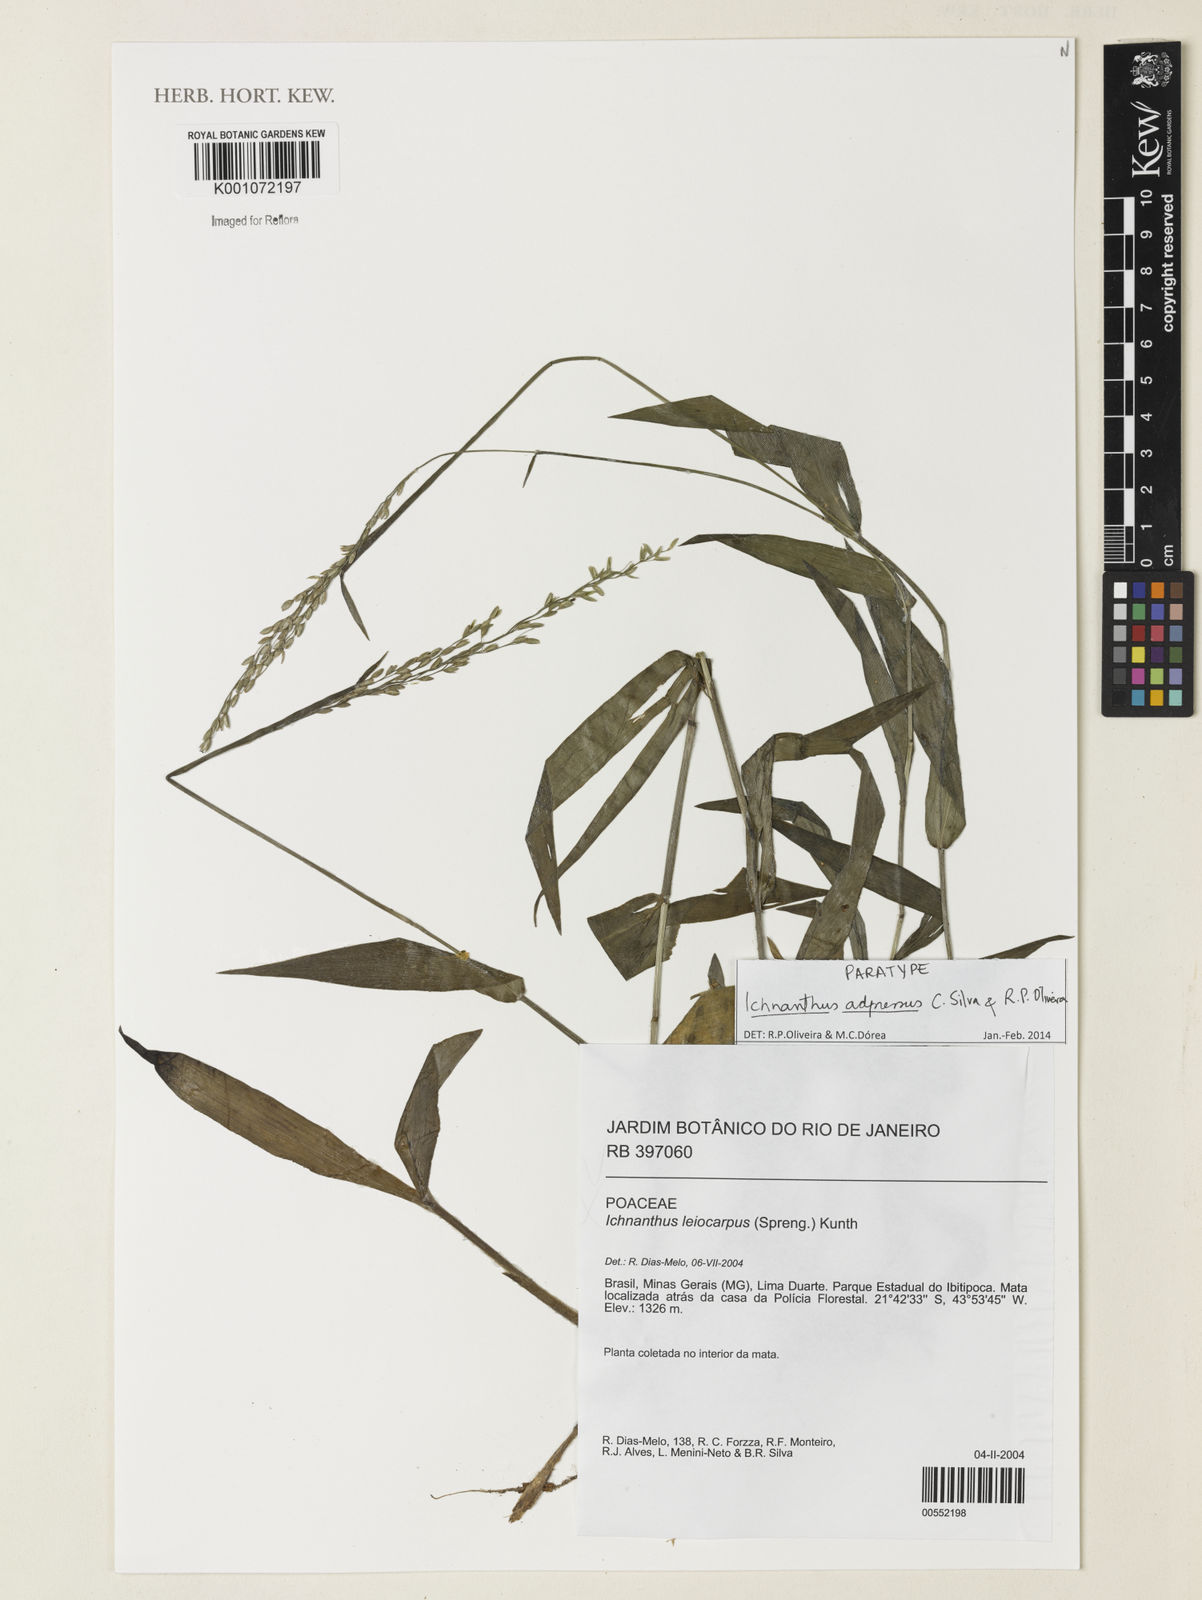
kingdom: Plantae
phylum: Tracheophyta
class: Liliopsida
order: Poales
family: Poaceae
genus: Ichnanthus
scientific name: Ichnanthus adpressus
